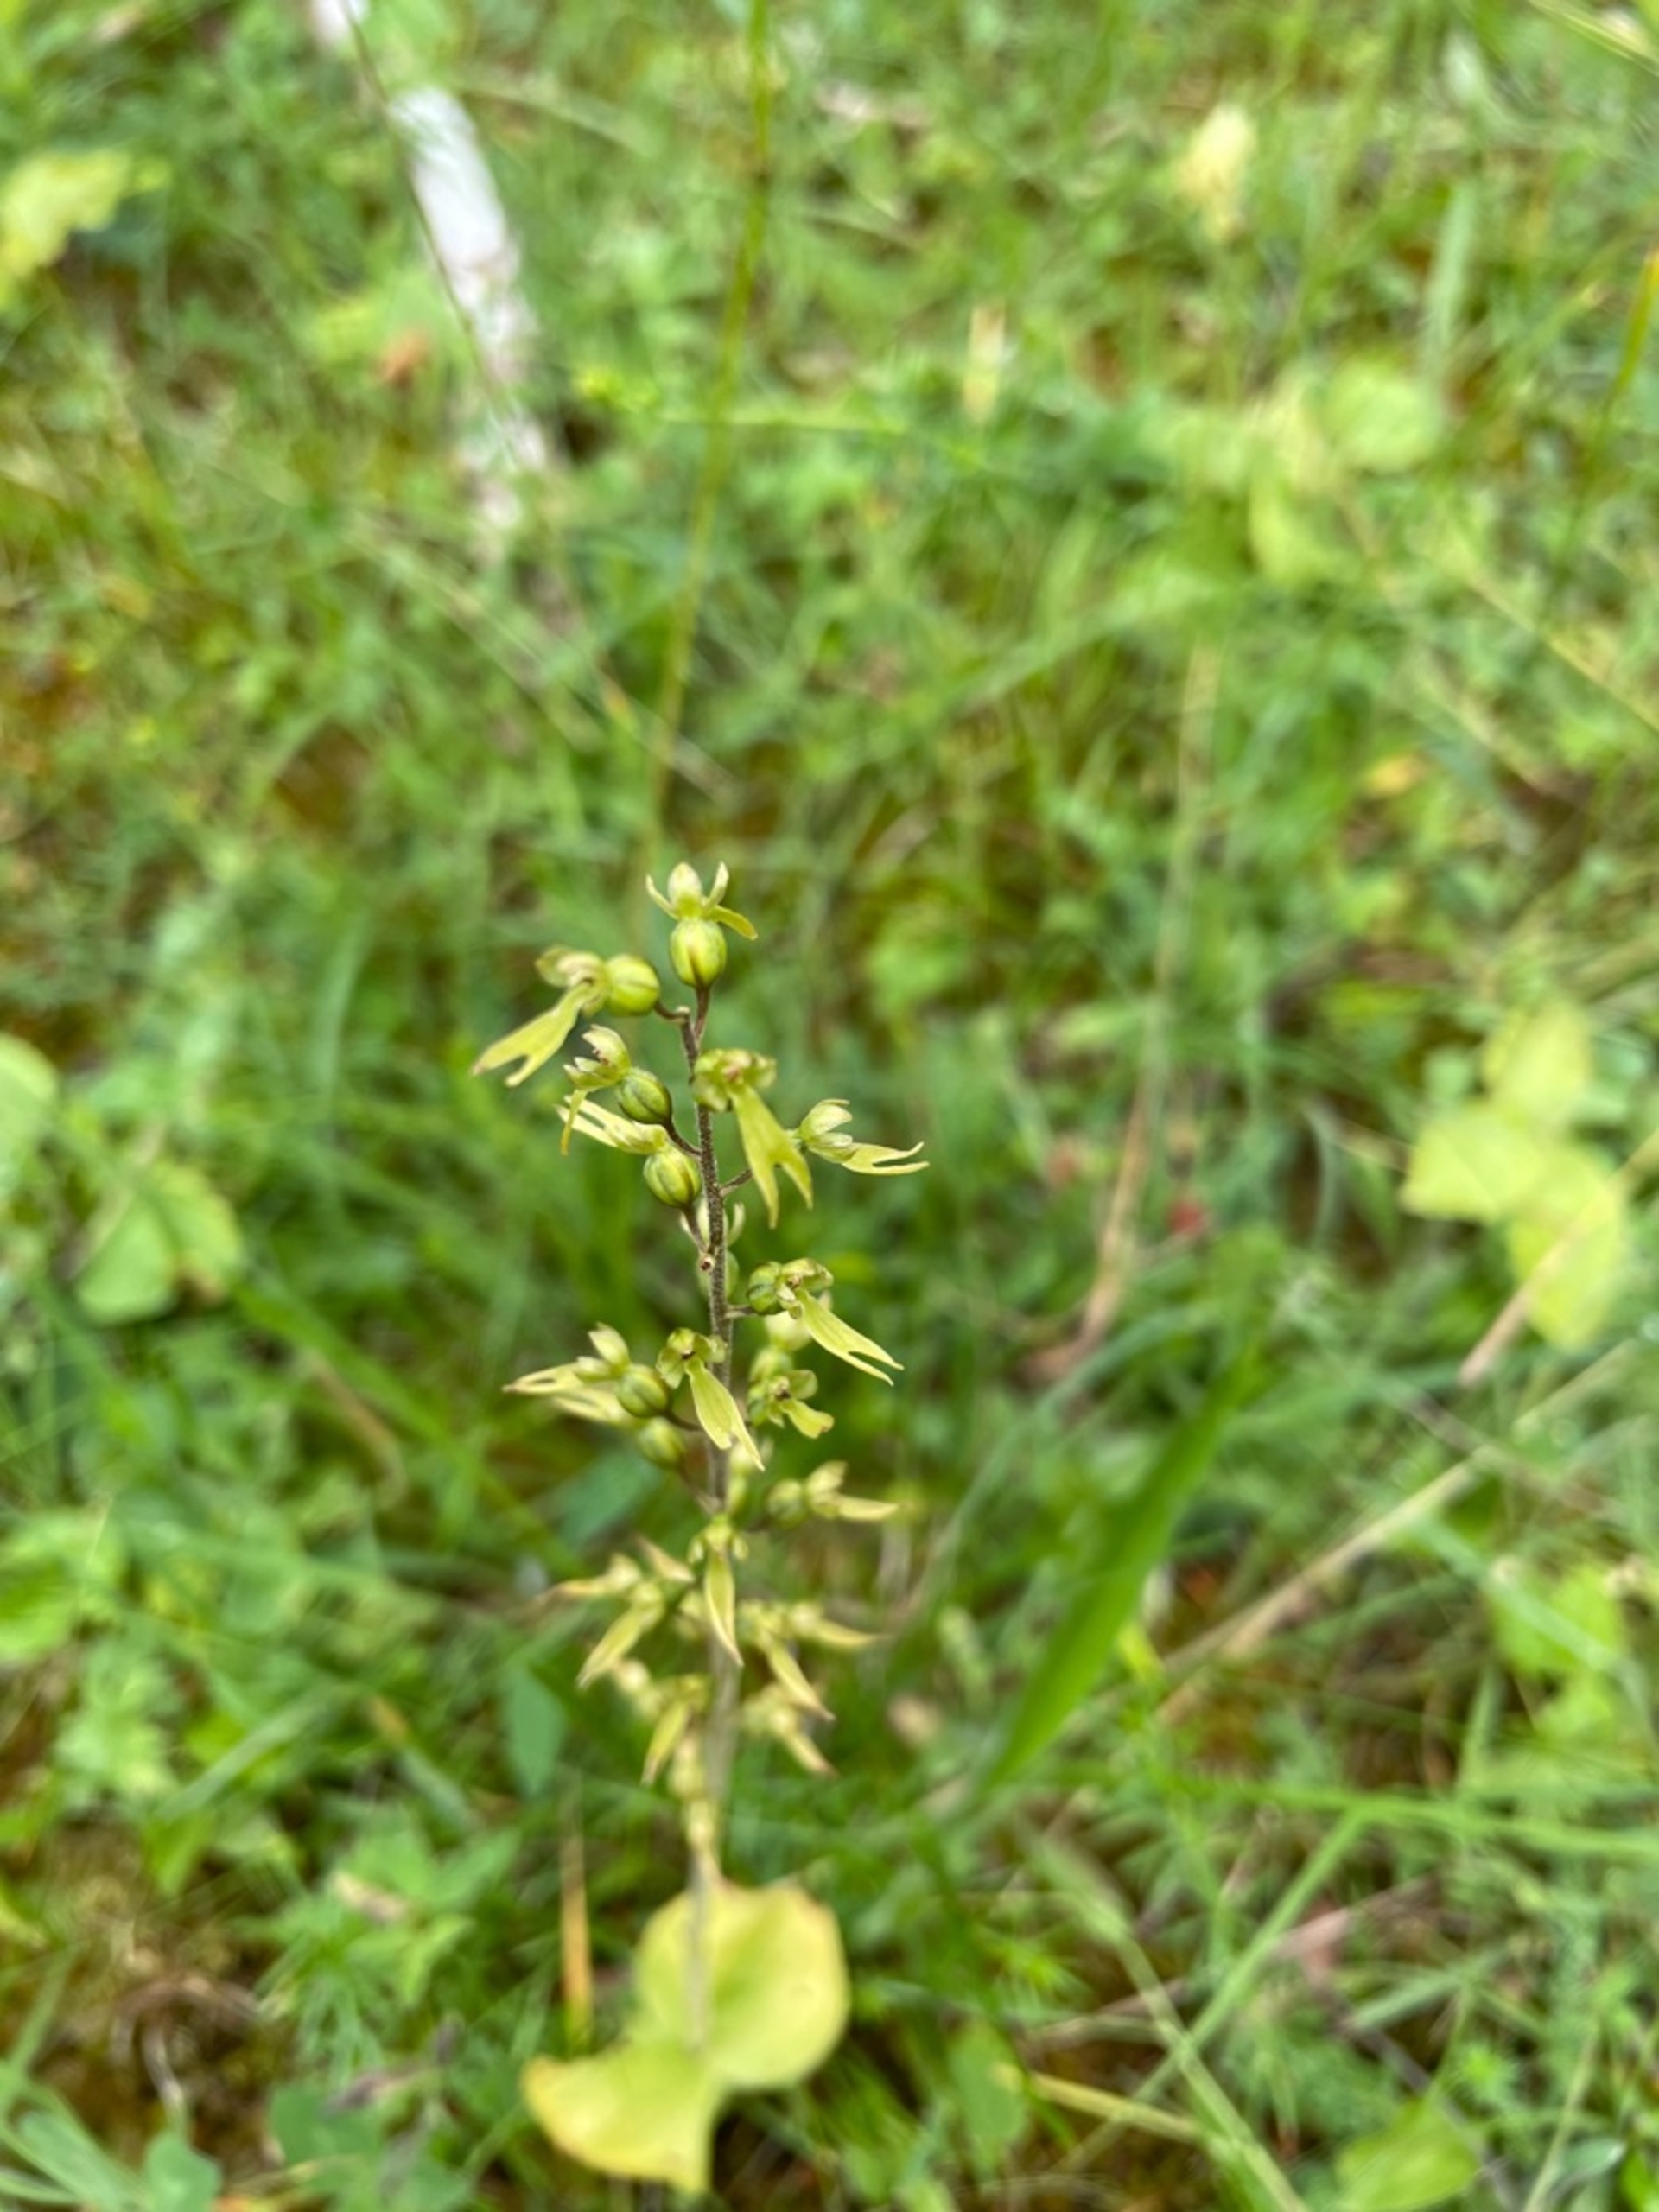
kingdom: Plantae
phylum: Tracheophyta
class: Liliopsida
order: Asparagales
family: Orchidaceae
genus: Neottia
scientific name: Neottia ovata
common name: Ægbladet fliglæbe
